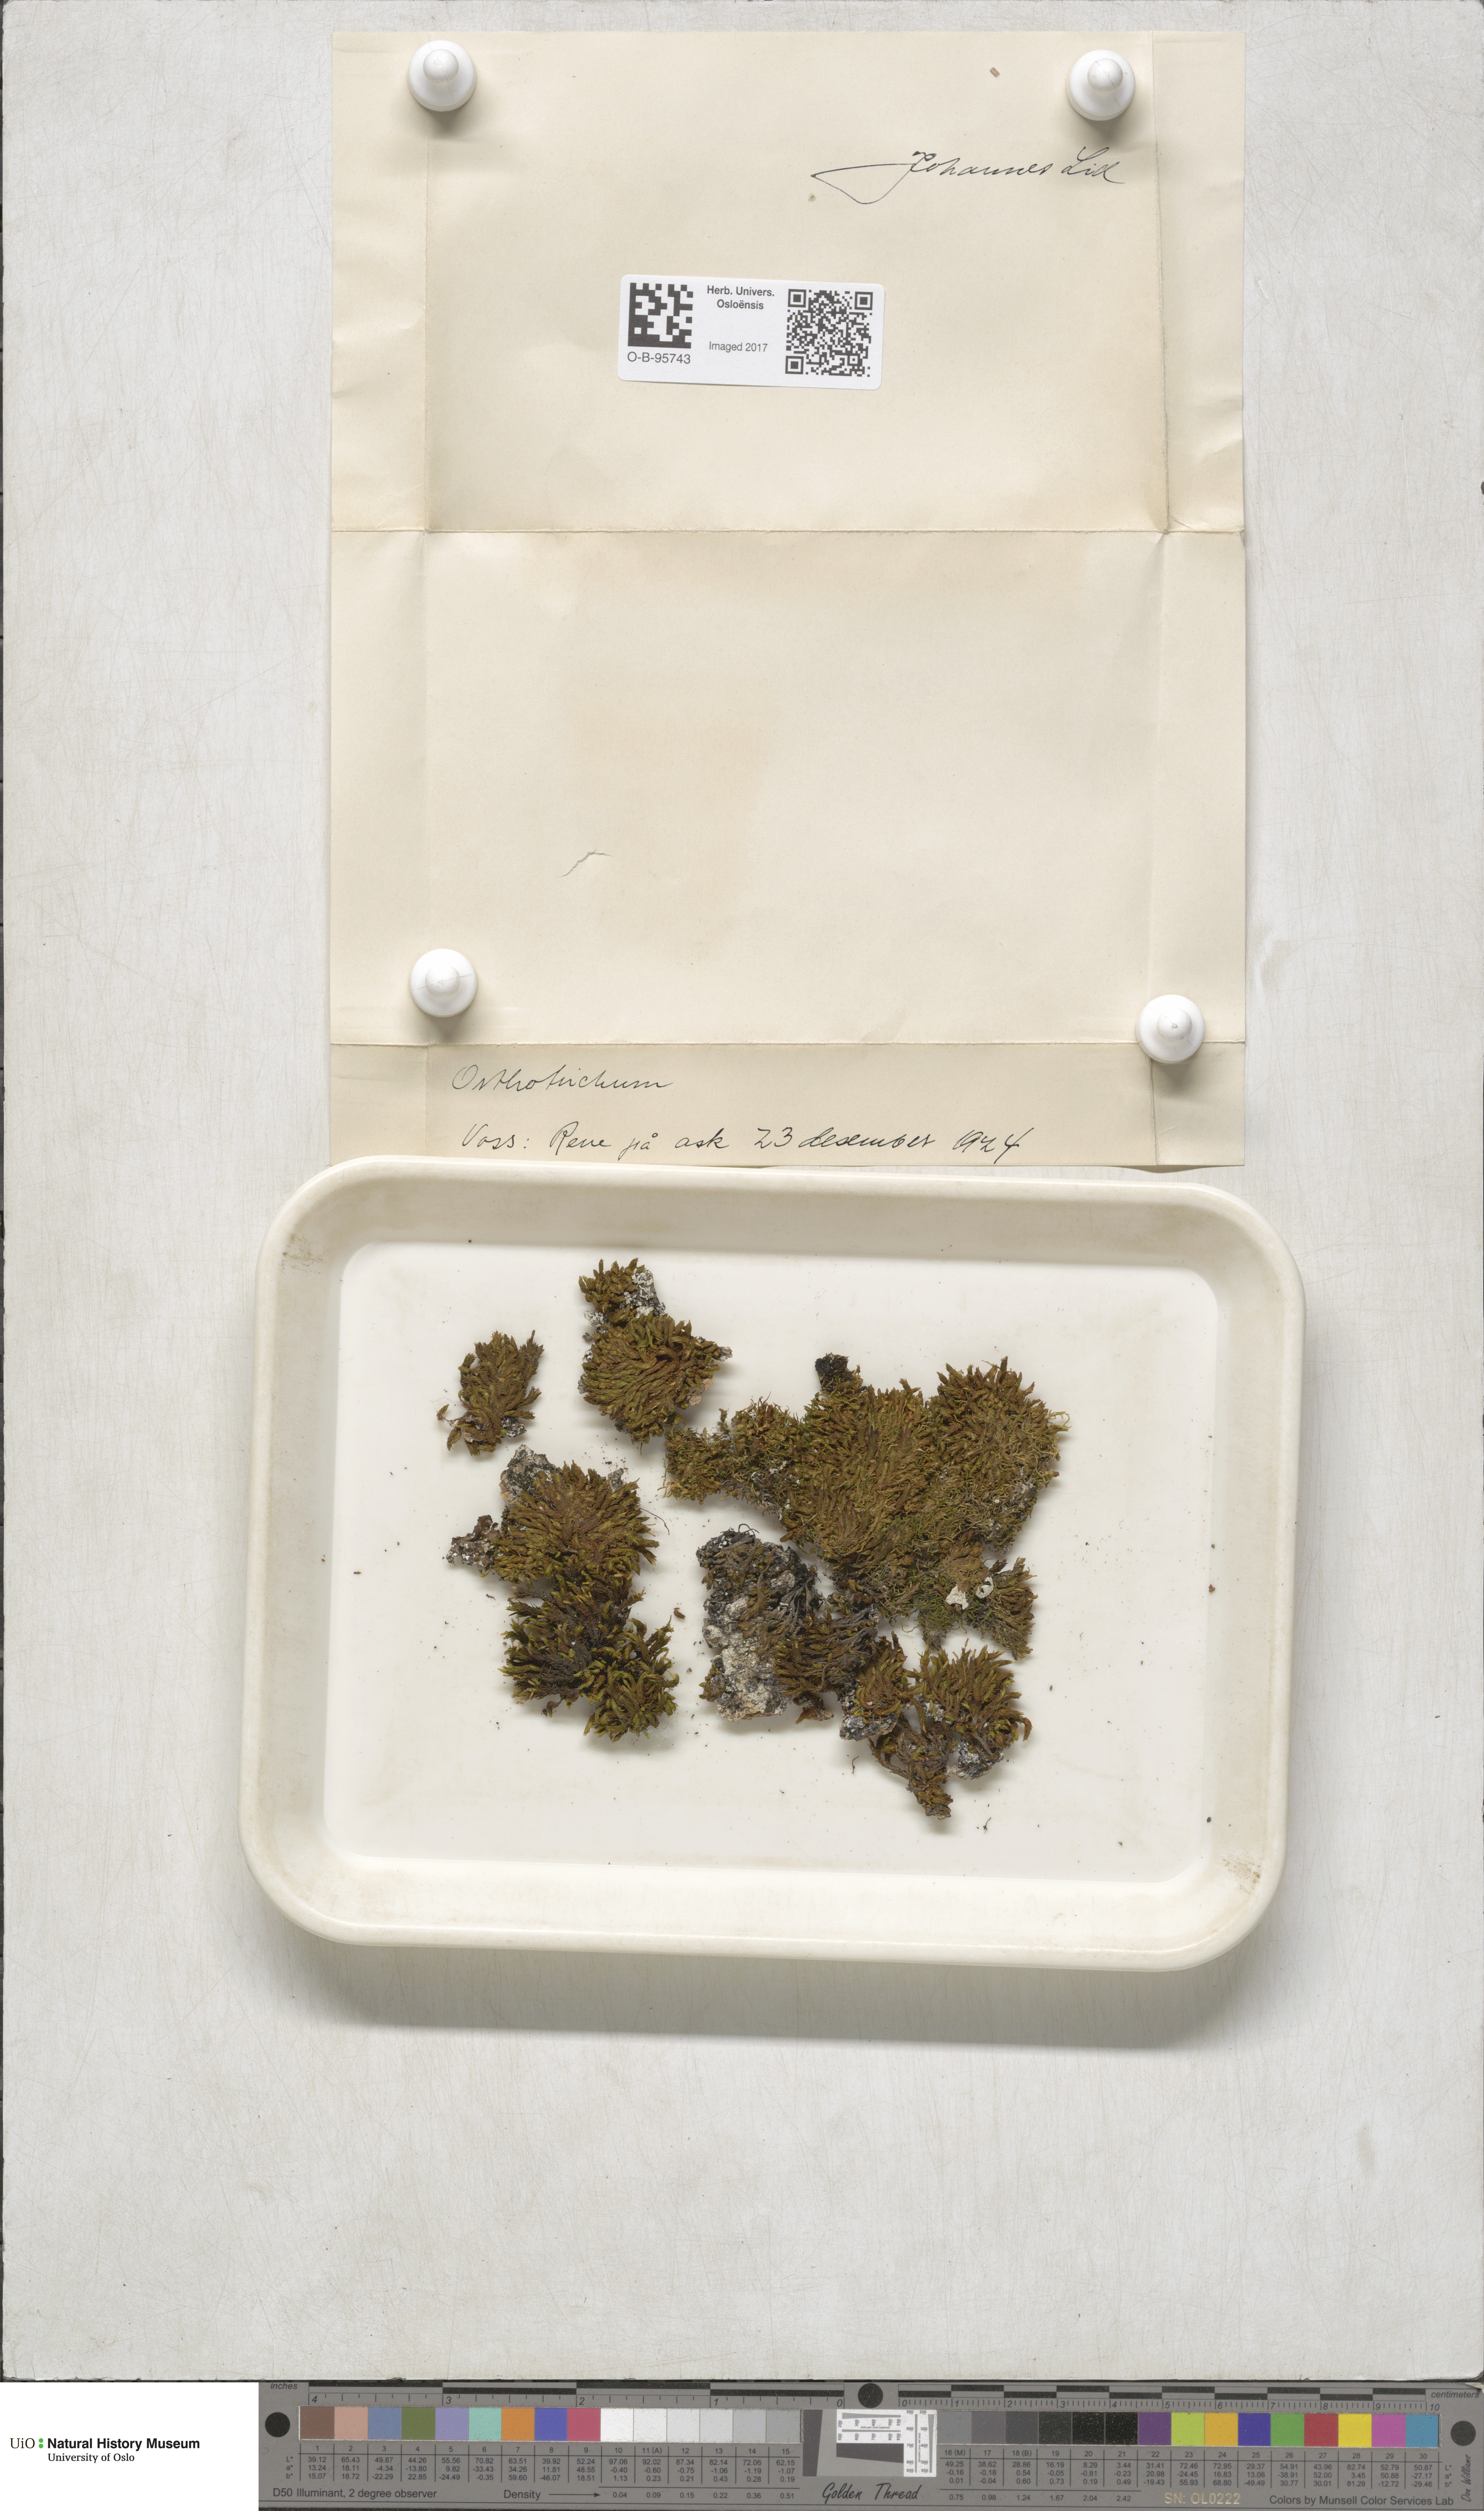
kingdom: Plantae
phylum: Bryophyta
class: Bryopsida
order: Orthotrichales
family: Orthotrichaceae
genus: Orthotrichum
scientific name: Orthotrichum
